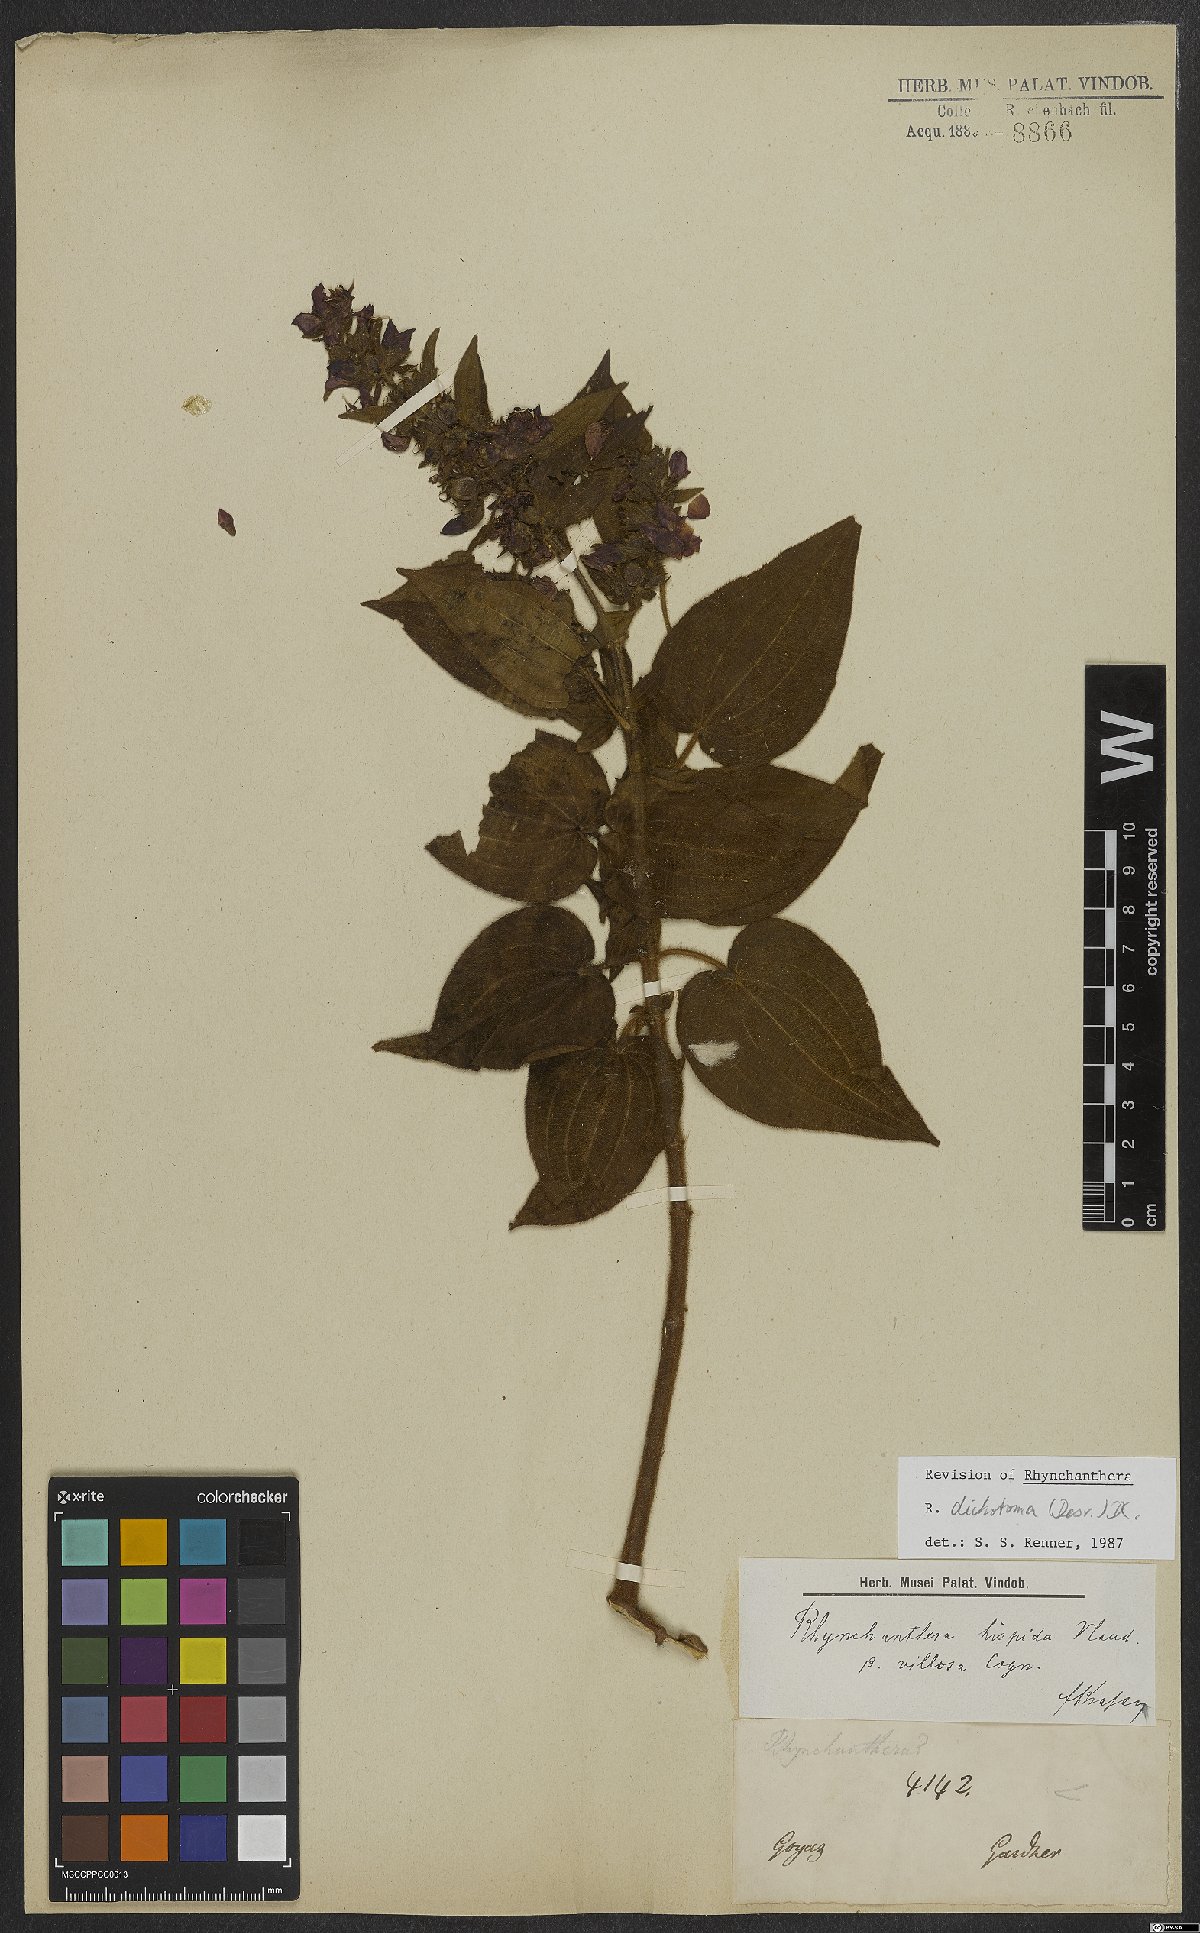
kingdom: Plantae
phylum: Tracheophyta
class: Magnoliopsida
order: Myrtales
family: Melastomataceae
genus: Rhynchanthera
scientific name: Rhynchanthera dichotoma
